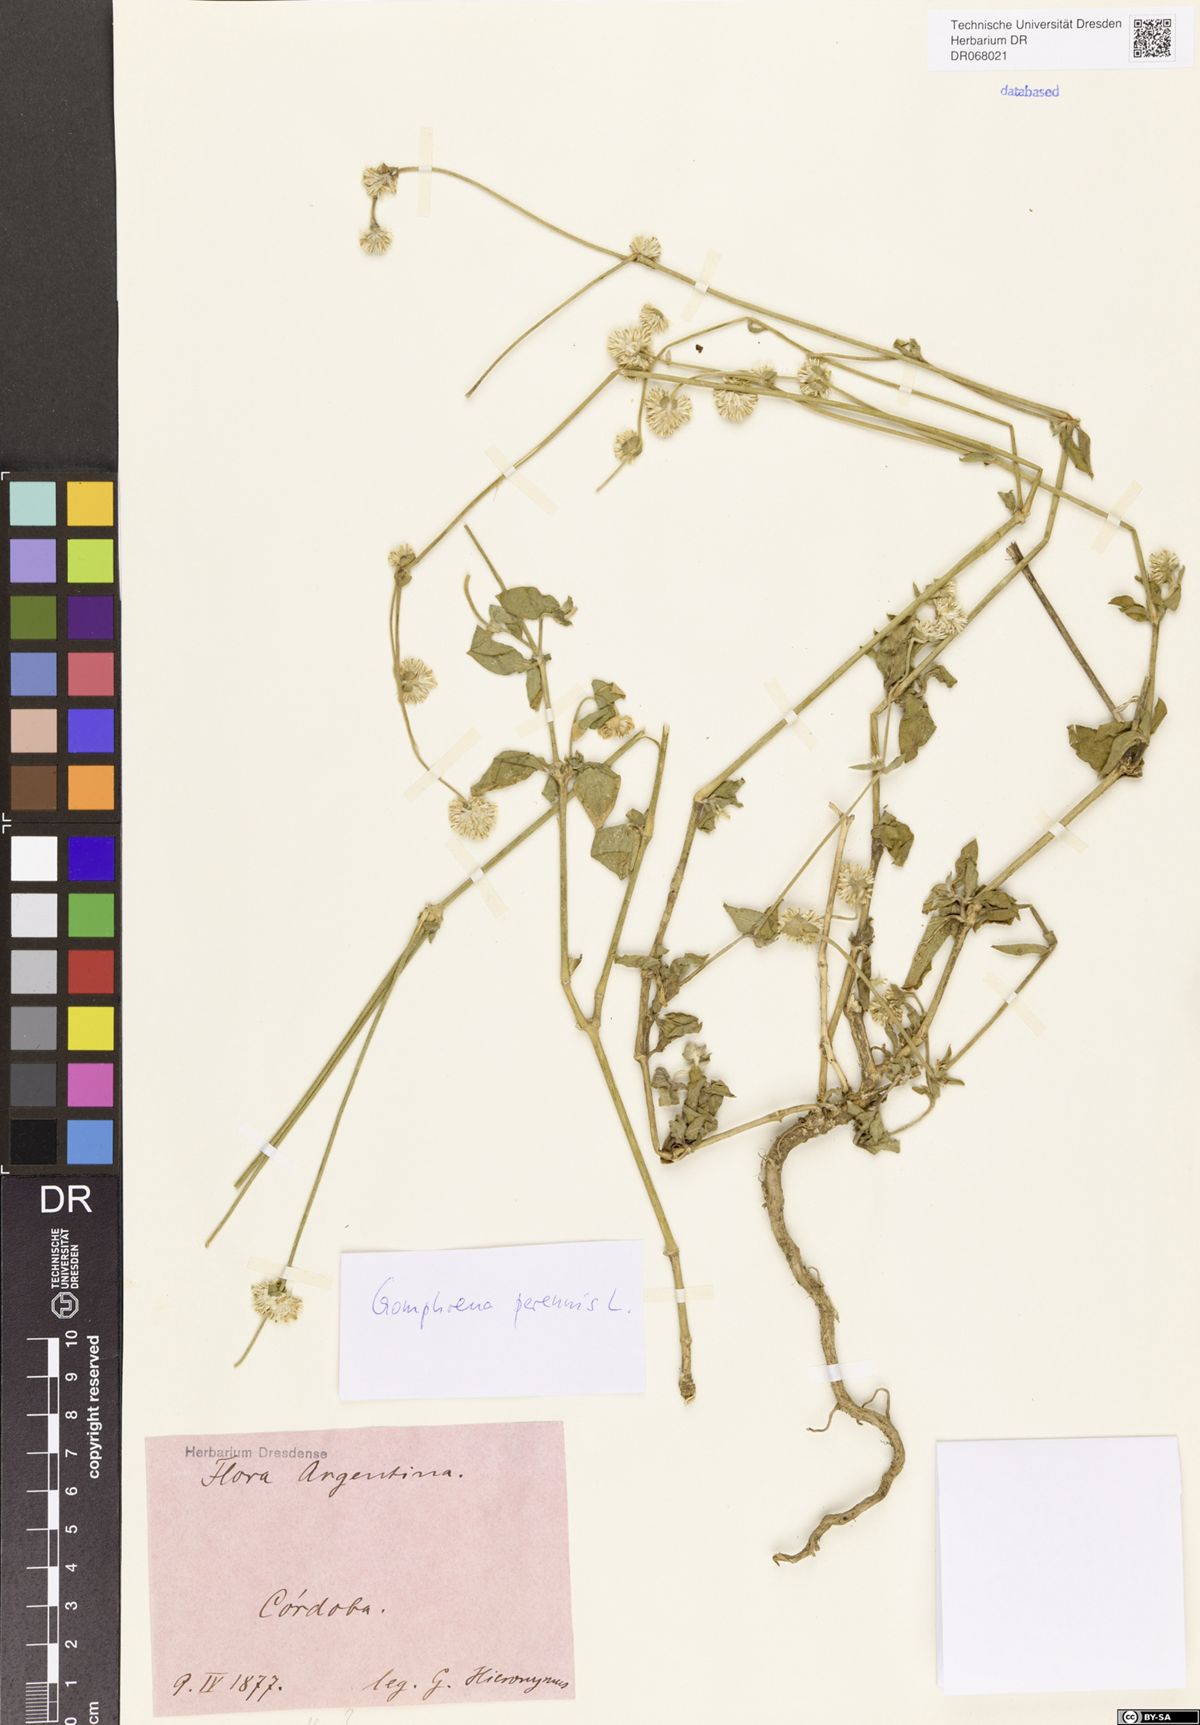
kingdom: Plantae
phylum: Tracheophyta
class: Magnoliopsida
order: Caryophyllales
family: Amaranthaceae
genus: Gomphrena
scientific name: Gomphrena perennis
